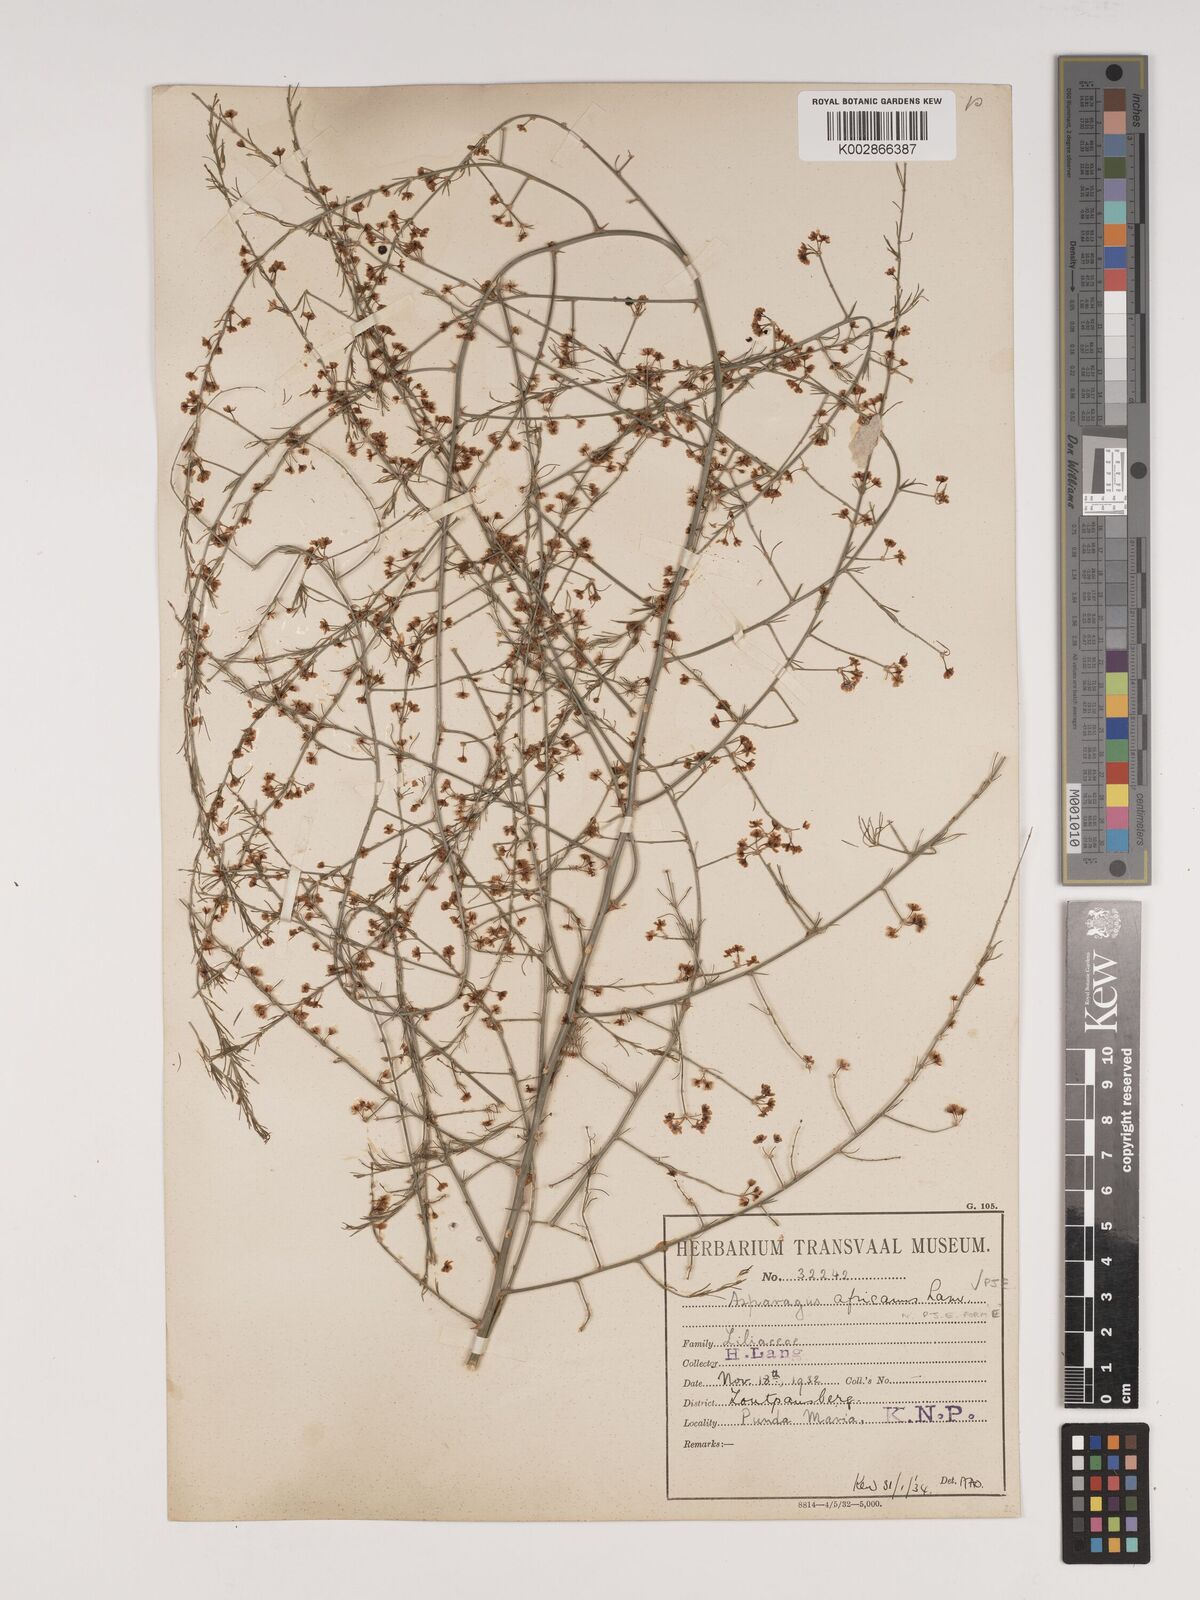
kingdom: Plantae
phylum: Tracheophyta
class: Liliopsida
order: Asparagales
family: Asparagaceae
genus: Asparagus
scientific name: Asparagus africanus
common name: Asparagus-fern
